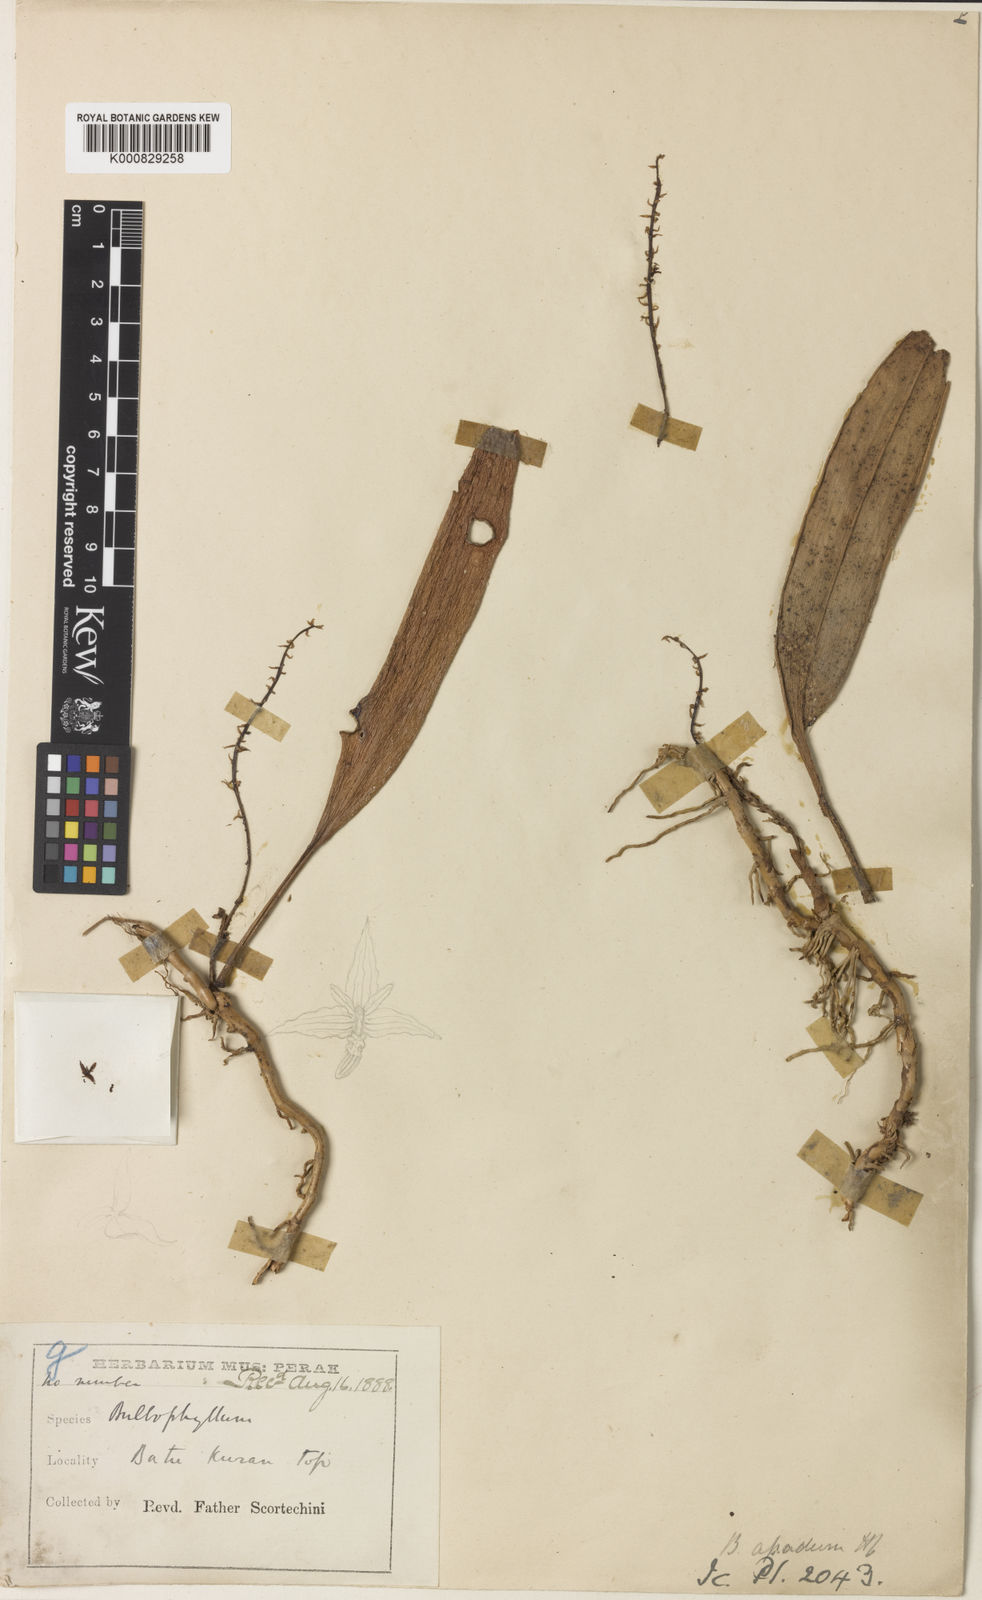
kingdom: Plantae
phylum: Tracheophyta
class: Liliopsida
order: Asparagales
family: Orchidaceae
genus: Bulbophyllum
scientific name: Bulbophyllum apodum
